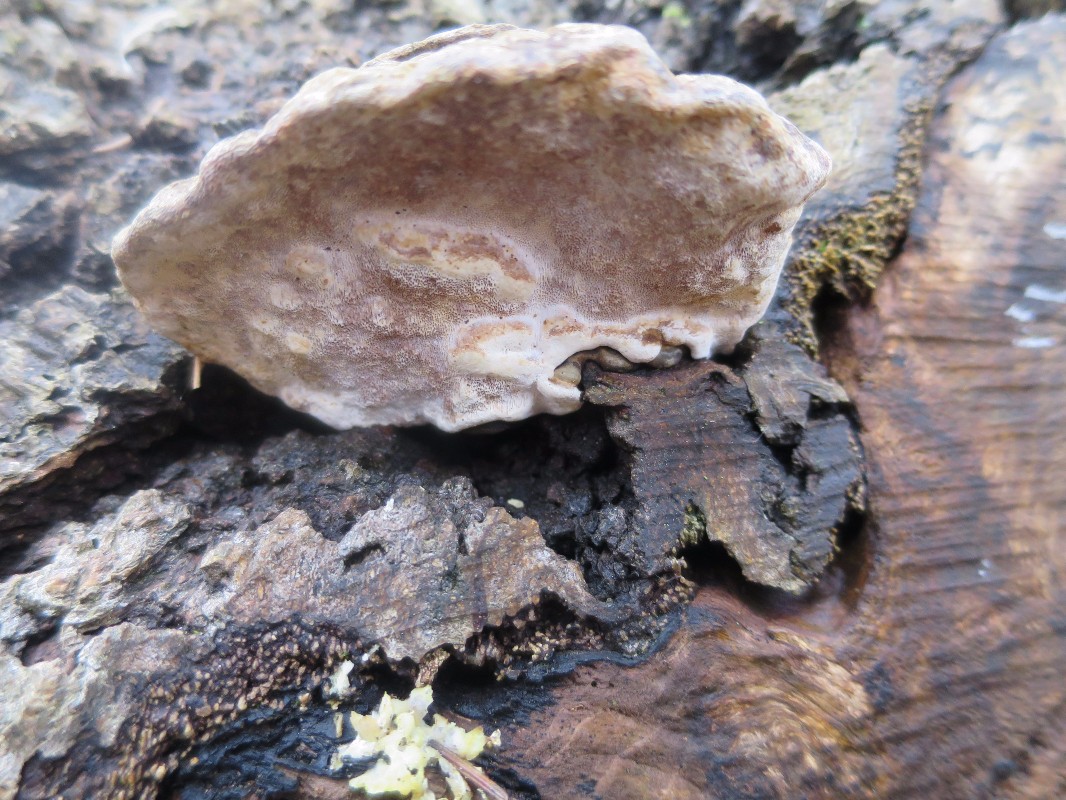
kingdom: Fungi
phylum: Basidiomycota
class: Agaricomycetes
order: Polyporales
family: Polyporaceae
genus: Ganoderma
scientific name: Ganoderma applanatum
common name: flad lakporesvamp
